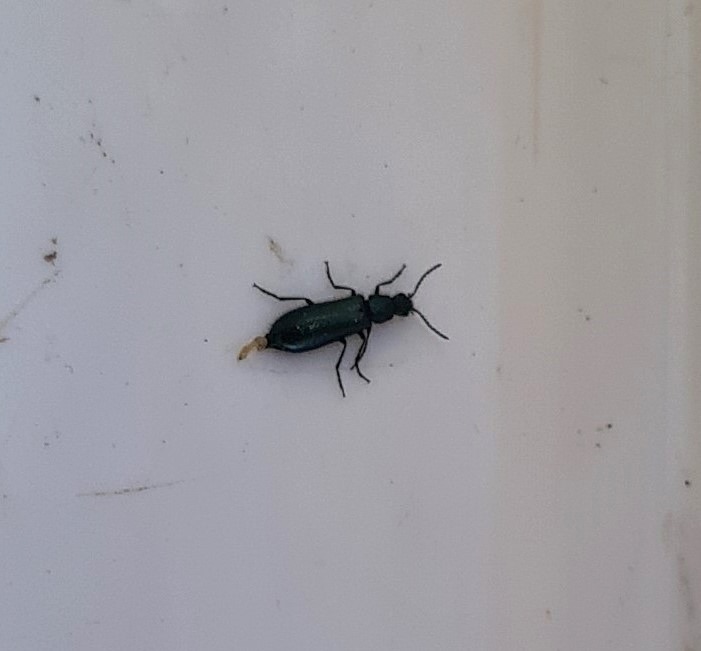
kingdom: Animalia
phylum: Arthropoda
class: Insecta
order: Coleoptera
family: Melyridae
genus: Dasytes
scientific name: Dasytes caeruleus
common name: Blå malakitbille
